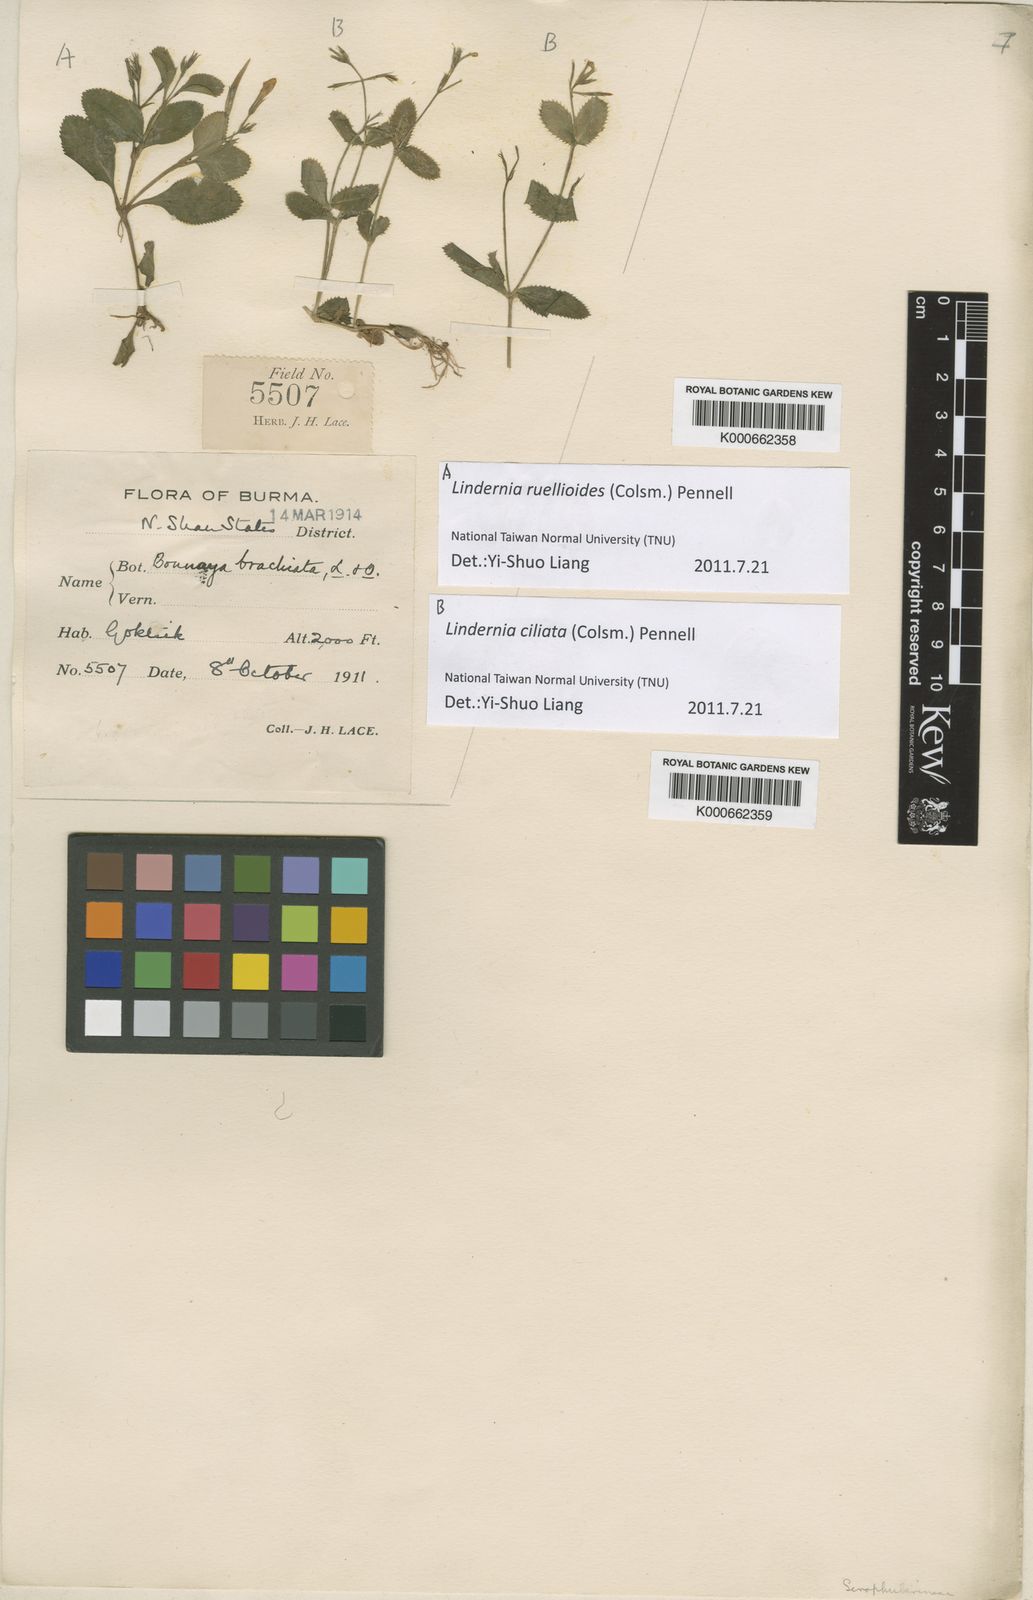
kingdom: Plantae
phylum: Tracheophyta
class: Magnoliopsida
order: Lamiales
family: Linderniaceae
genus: Bonnaya
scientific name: Bonnaya ruellioides
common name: Duckbill pimpernel
